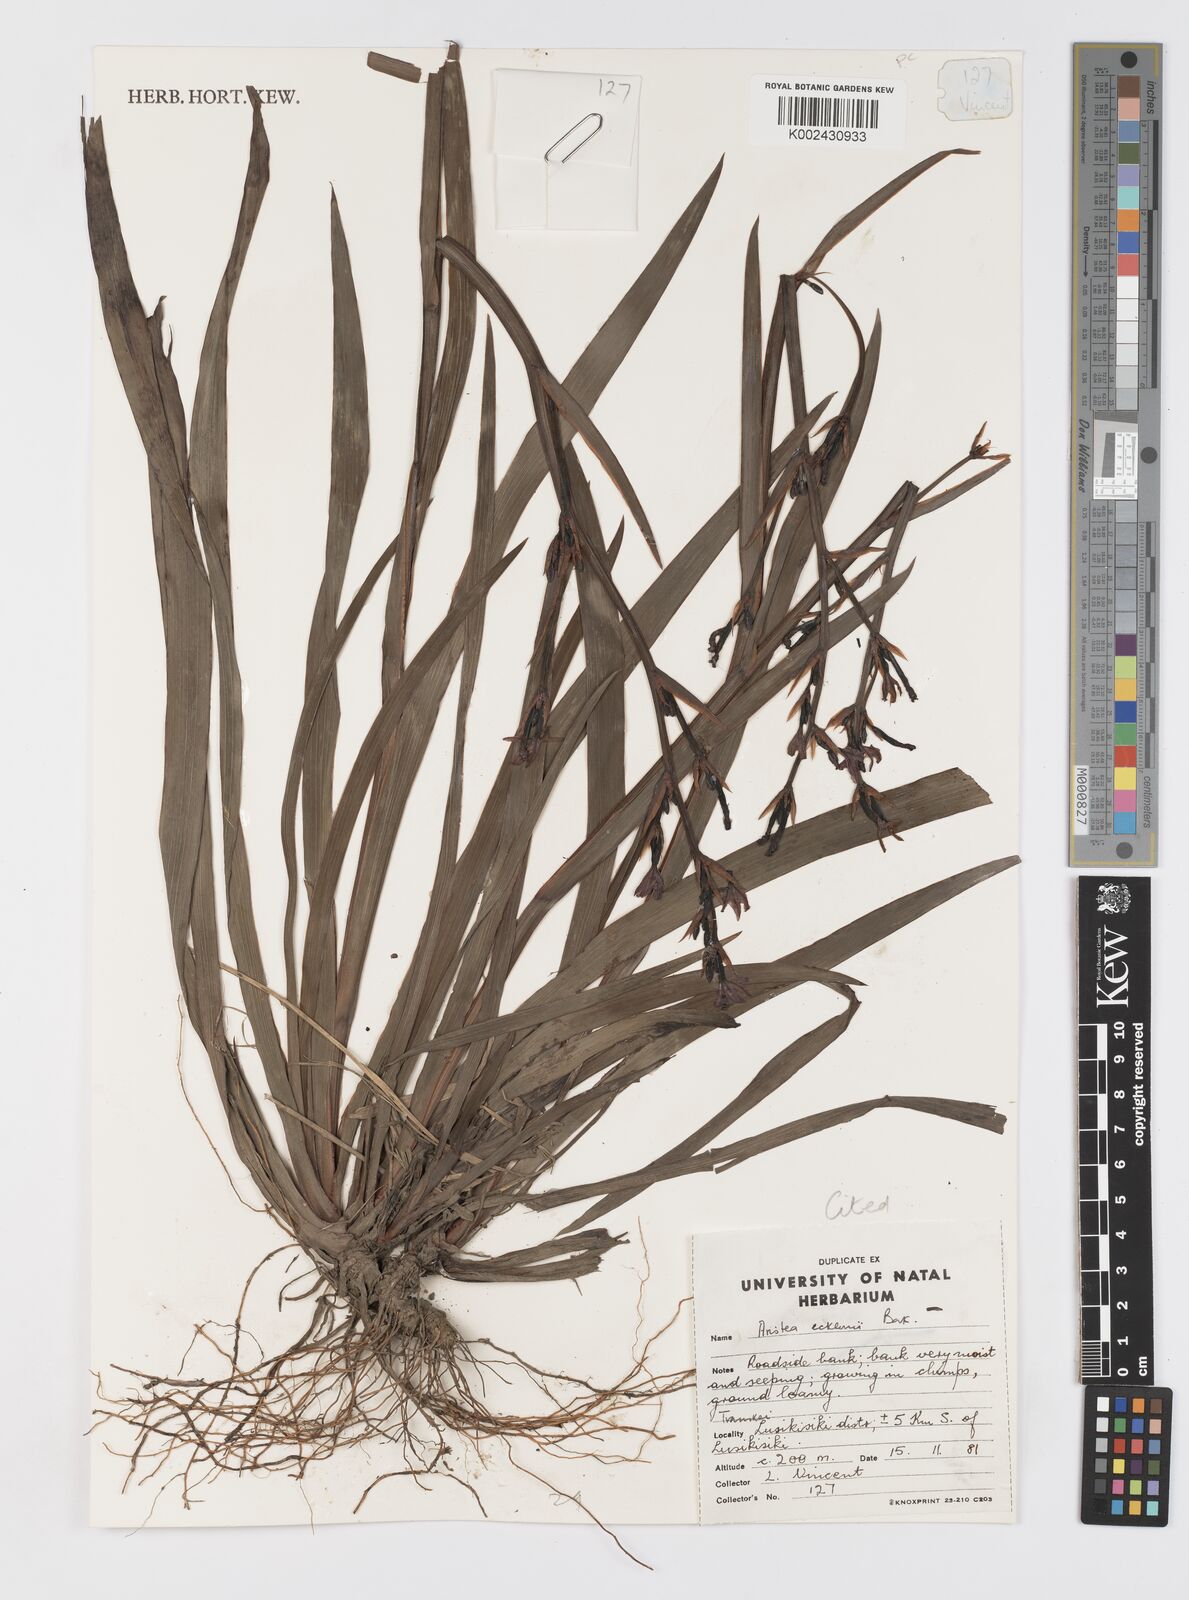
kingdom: Plantae
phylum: Tracheophyta
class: Liliopsida
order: Asparagales
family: Iridaceae
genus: Aristea
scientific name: Aristea ecklonii
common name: Blue corn-lily
